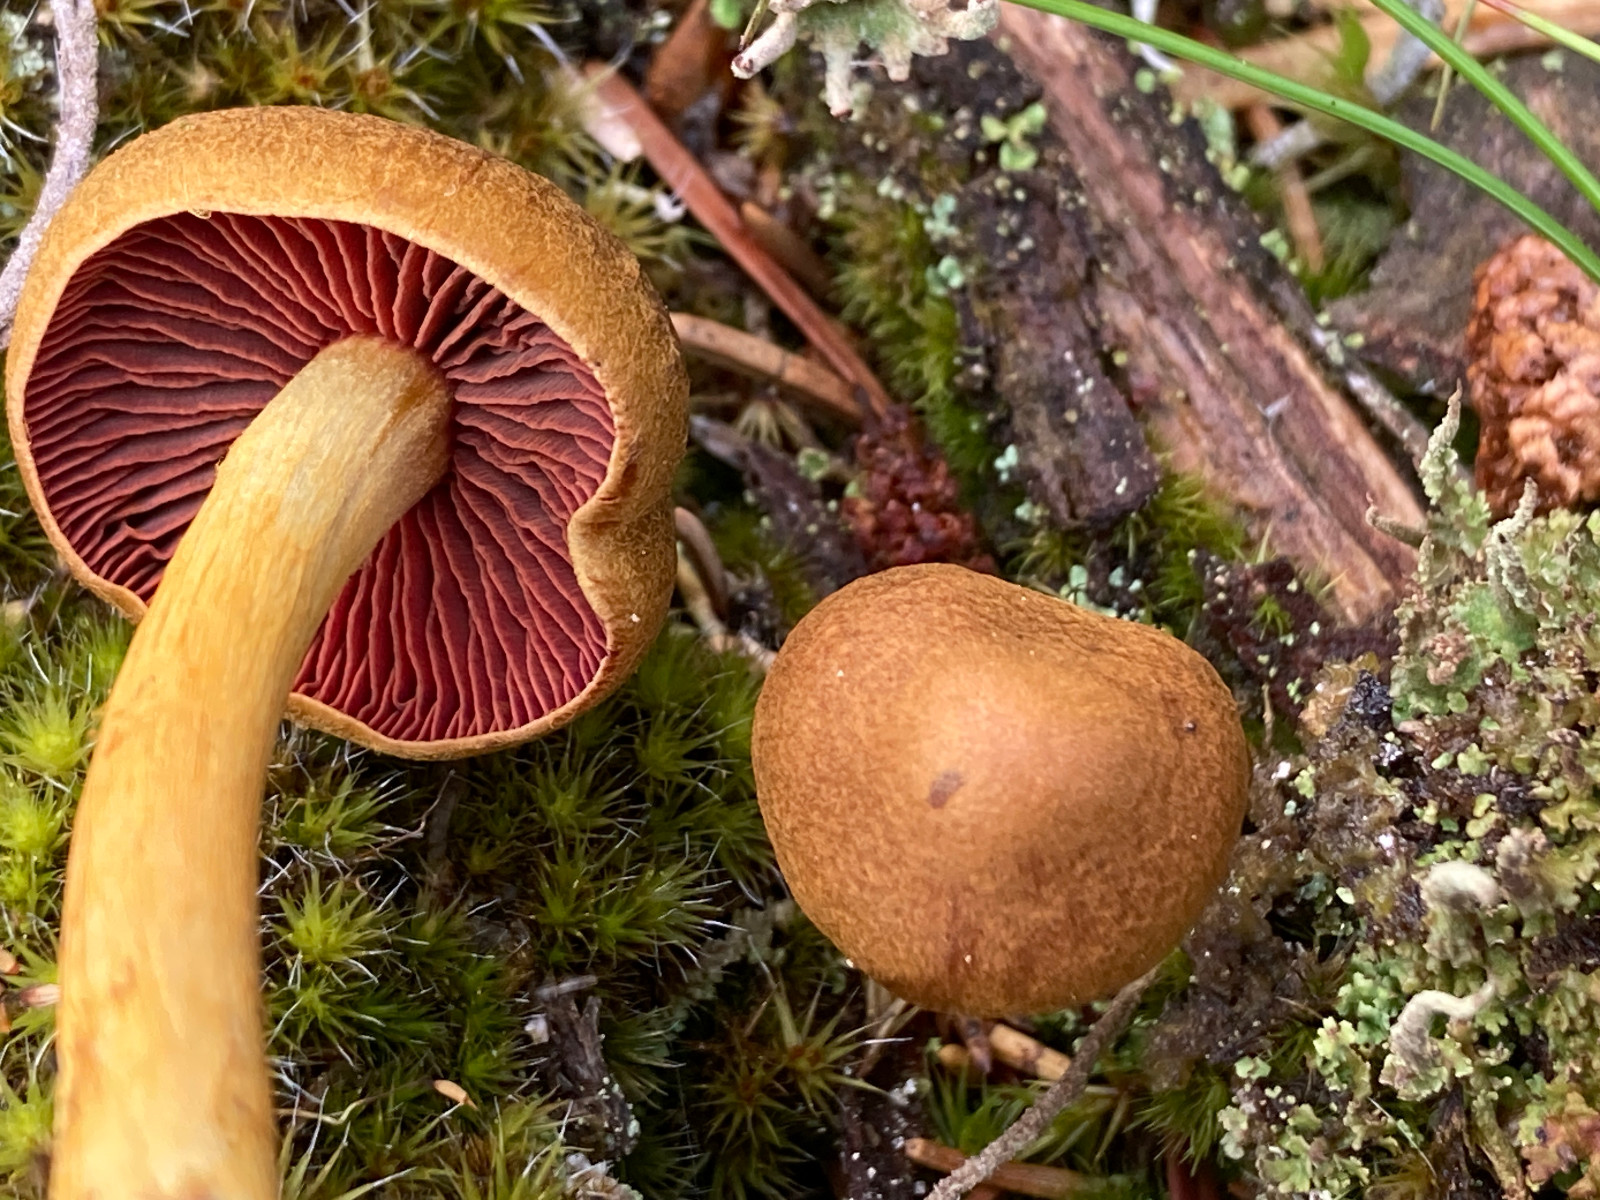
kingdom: Fungi
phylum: Basidiomycota
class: Agaricomycetes
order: Agaricales
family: Cortinariaceae
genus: Cortinarius
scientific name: Cortinarius
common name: cinnoberbladet slørhat
